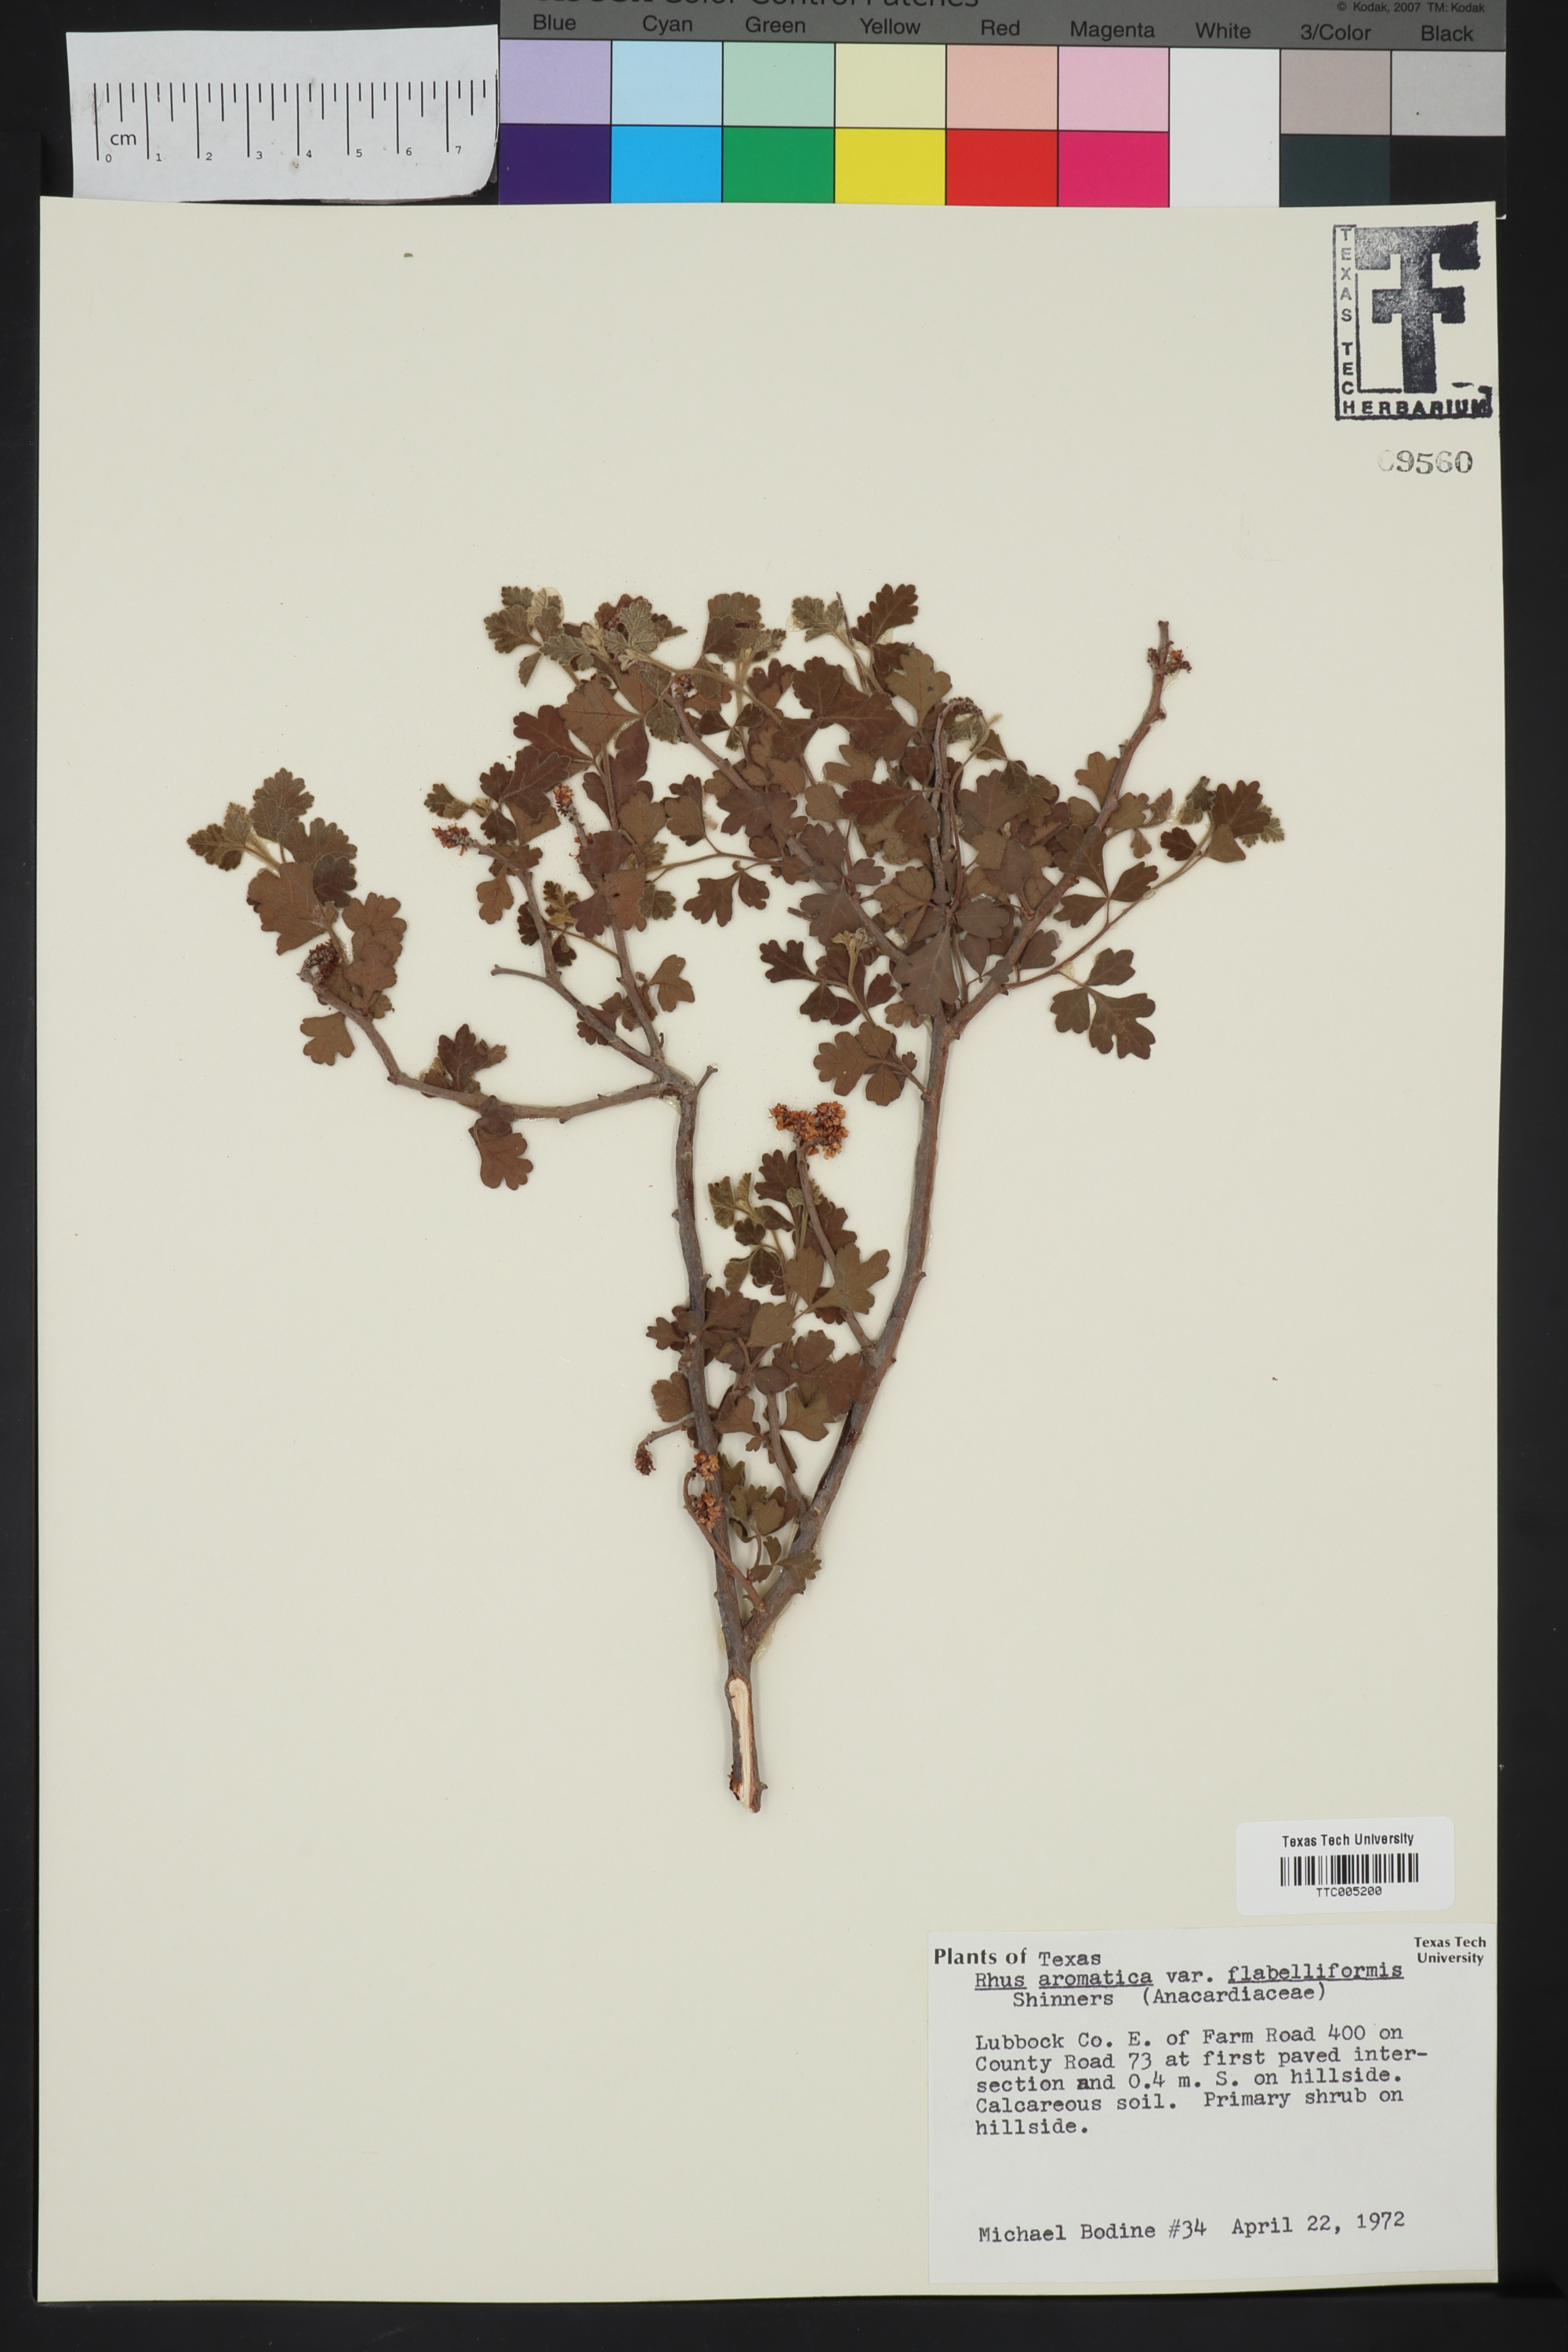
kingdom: Plantae
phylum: Tracheophyta
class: Magnoliopsida
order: Sapindales
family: Anacardiaceae
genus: Rhus
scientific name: Rhus trilobata
